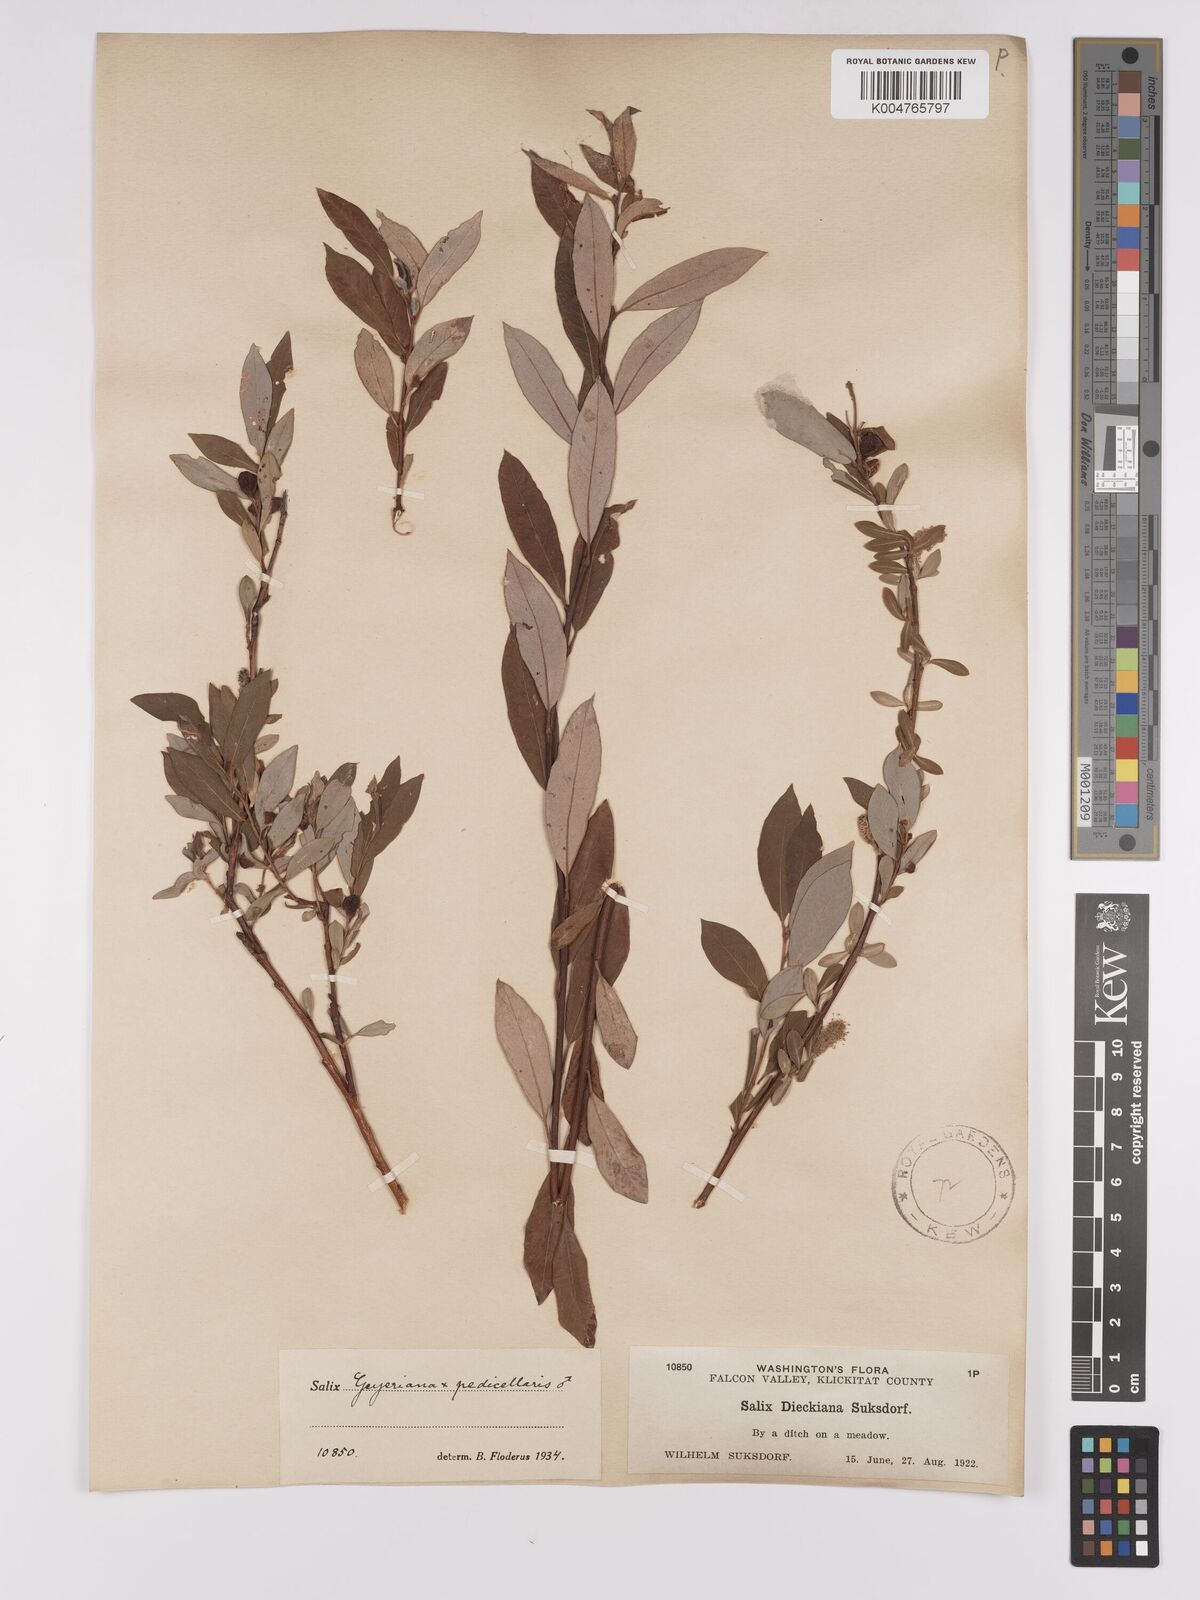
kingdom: Plantae
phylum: Tracheophyta
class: Magnoliopsida
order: Malpighiales
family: Salicaceae
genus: Salix
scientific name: Salix geyeriana
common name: Geyer's willow
